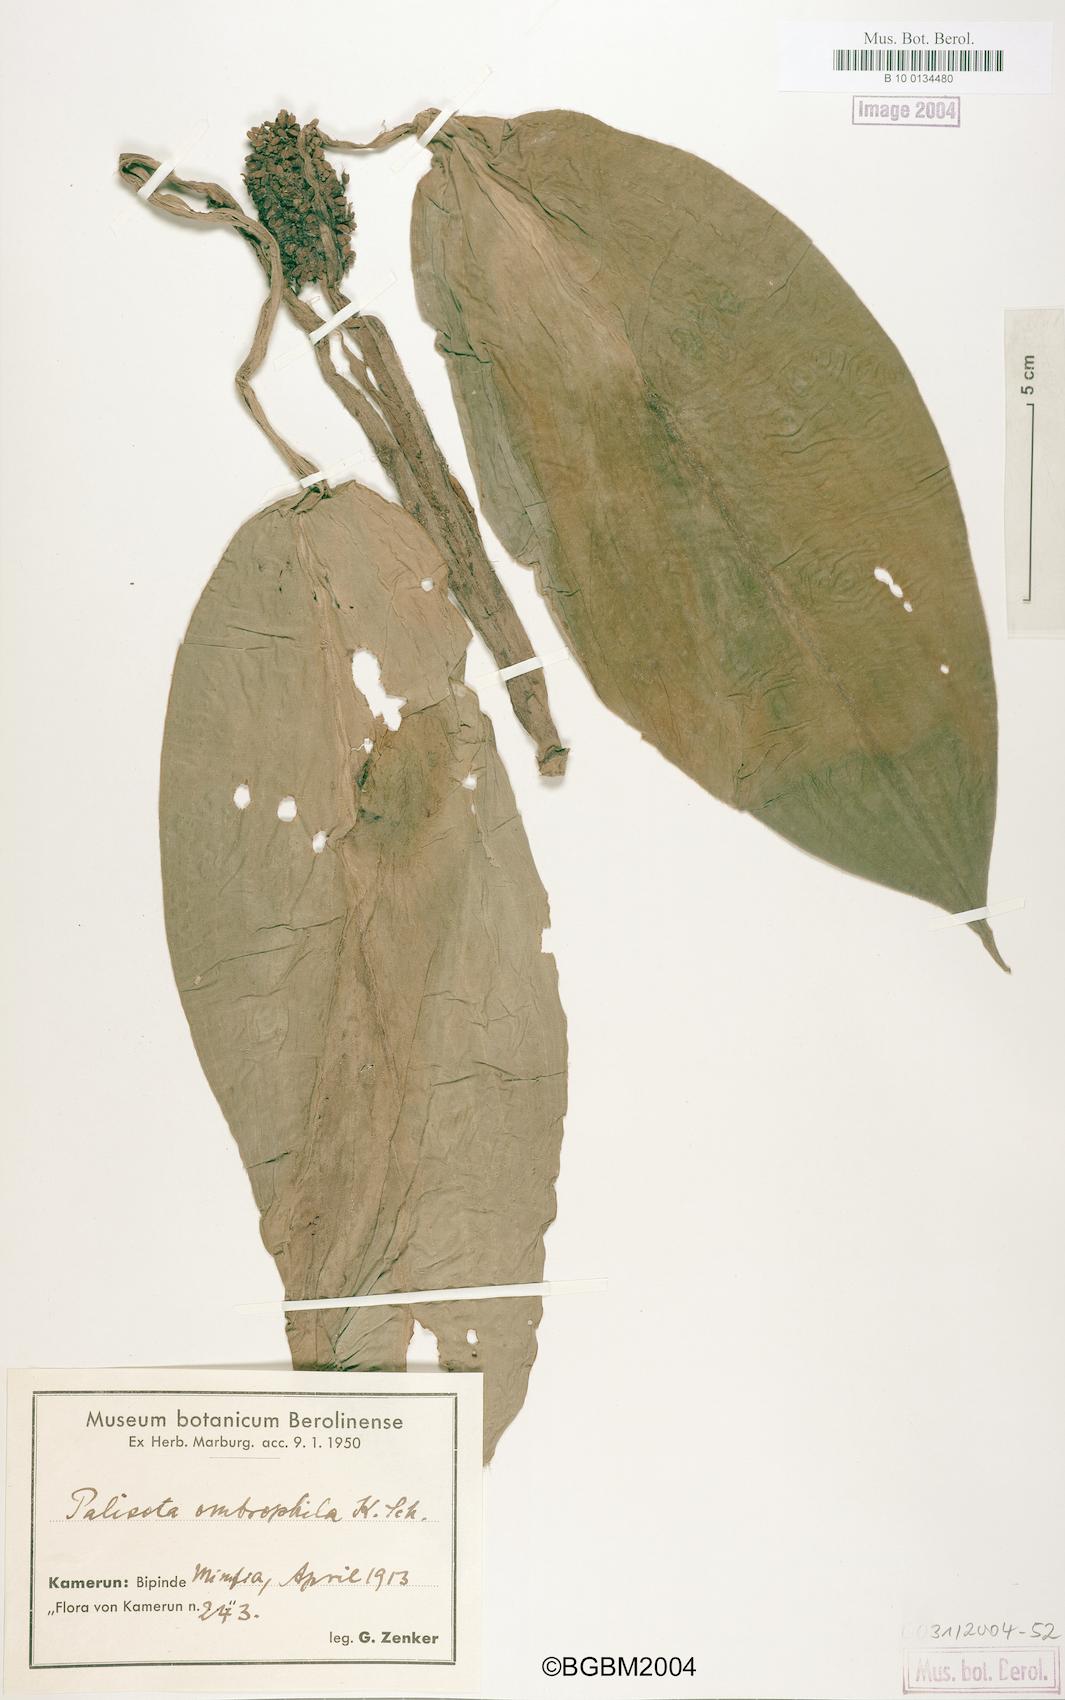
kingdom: Plantae
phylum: Tracheophyta
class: Liliopsida
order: Commelinales
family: Commelinaceae
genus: Palisota
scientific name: Palisota barteri
